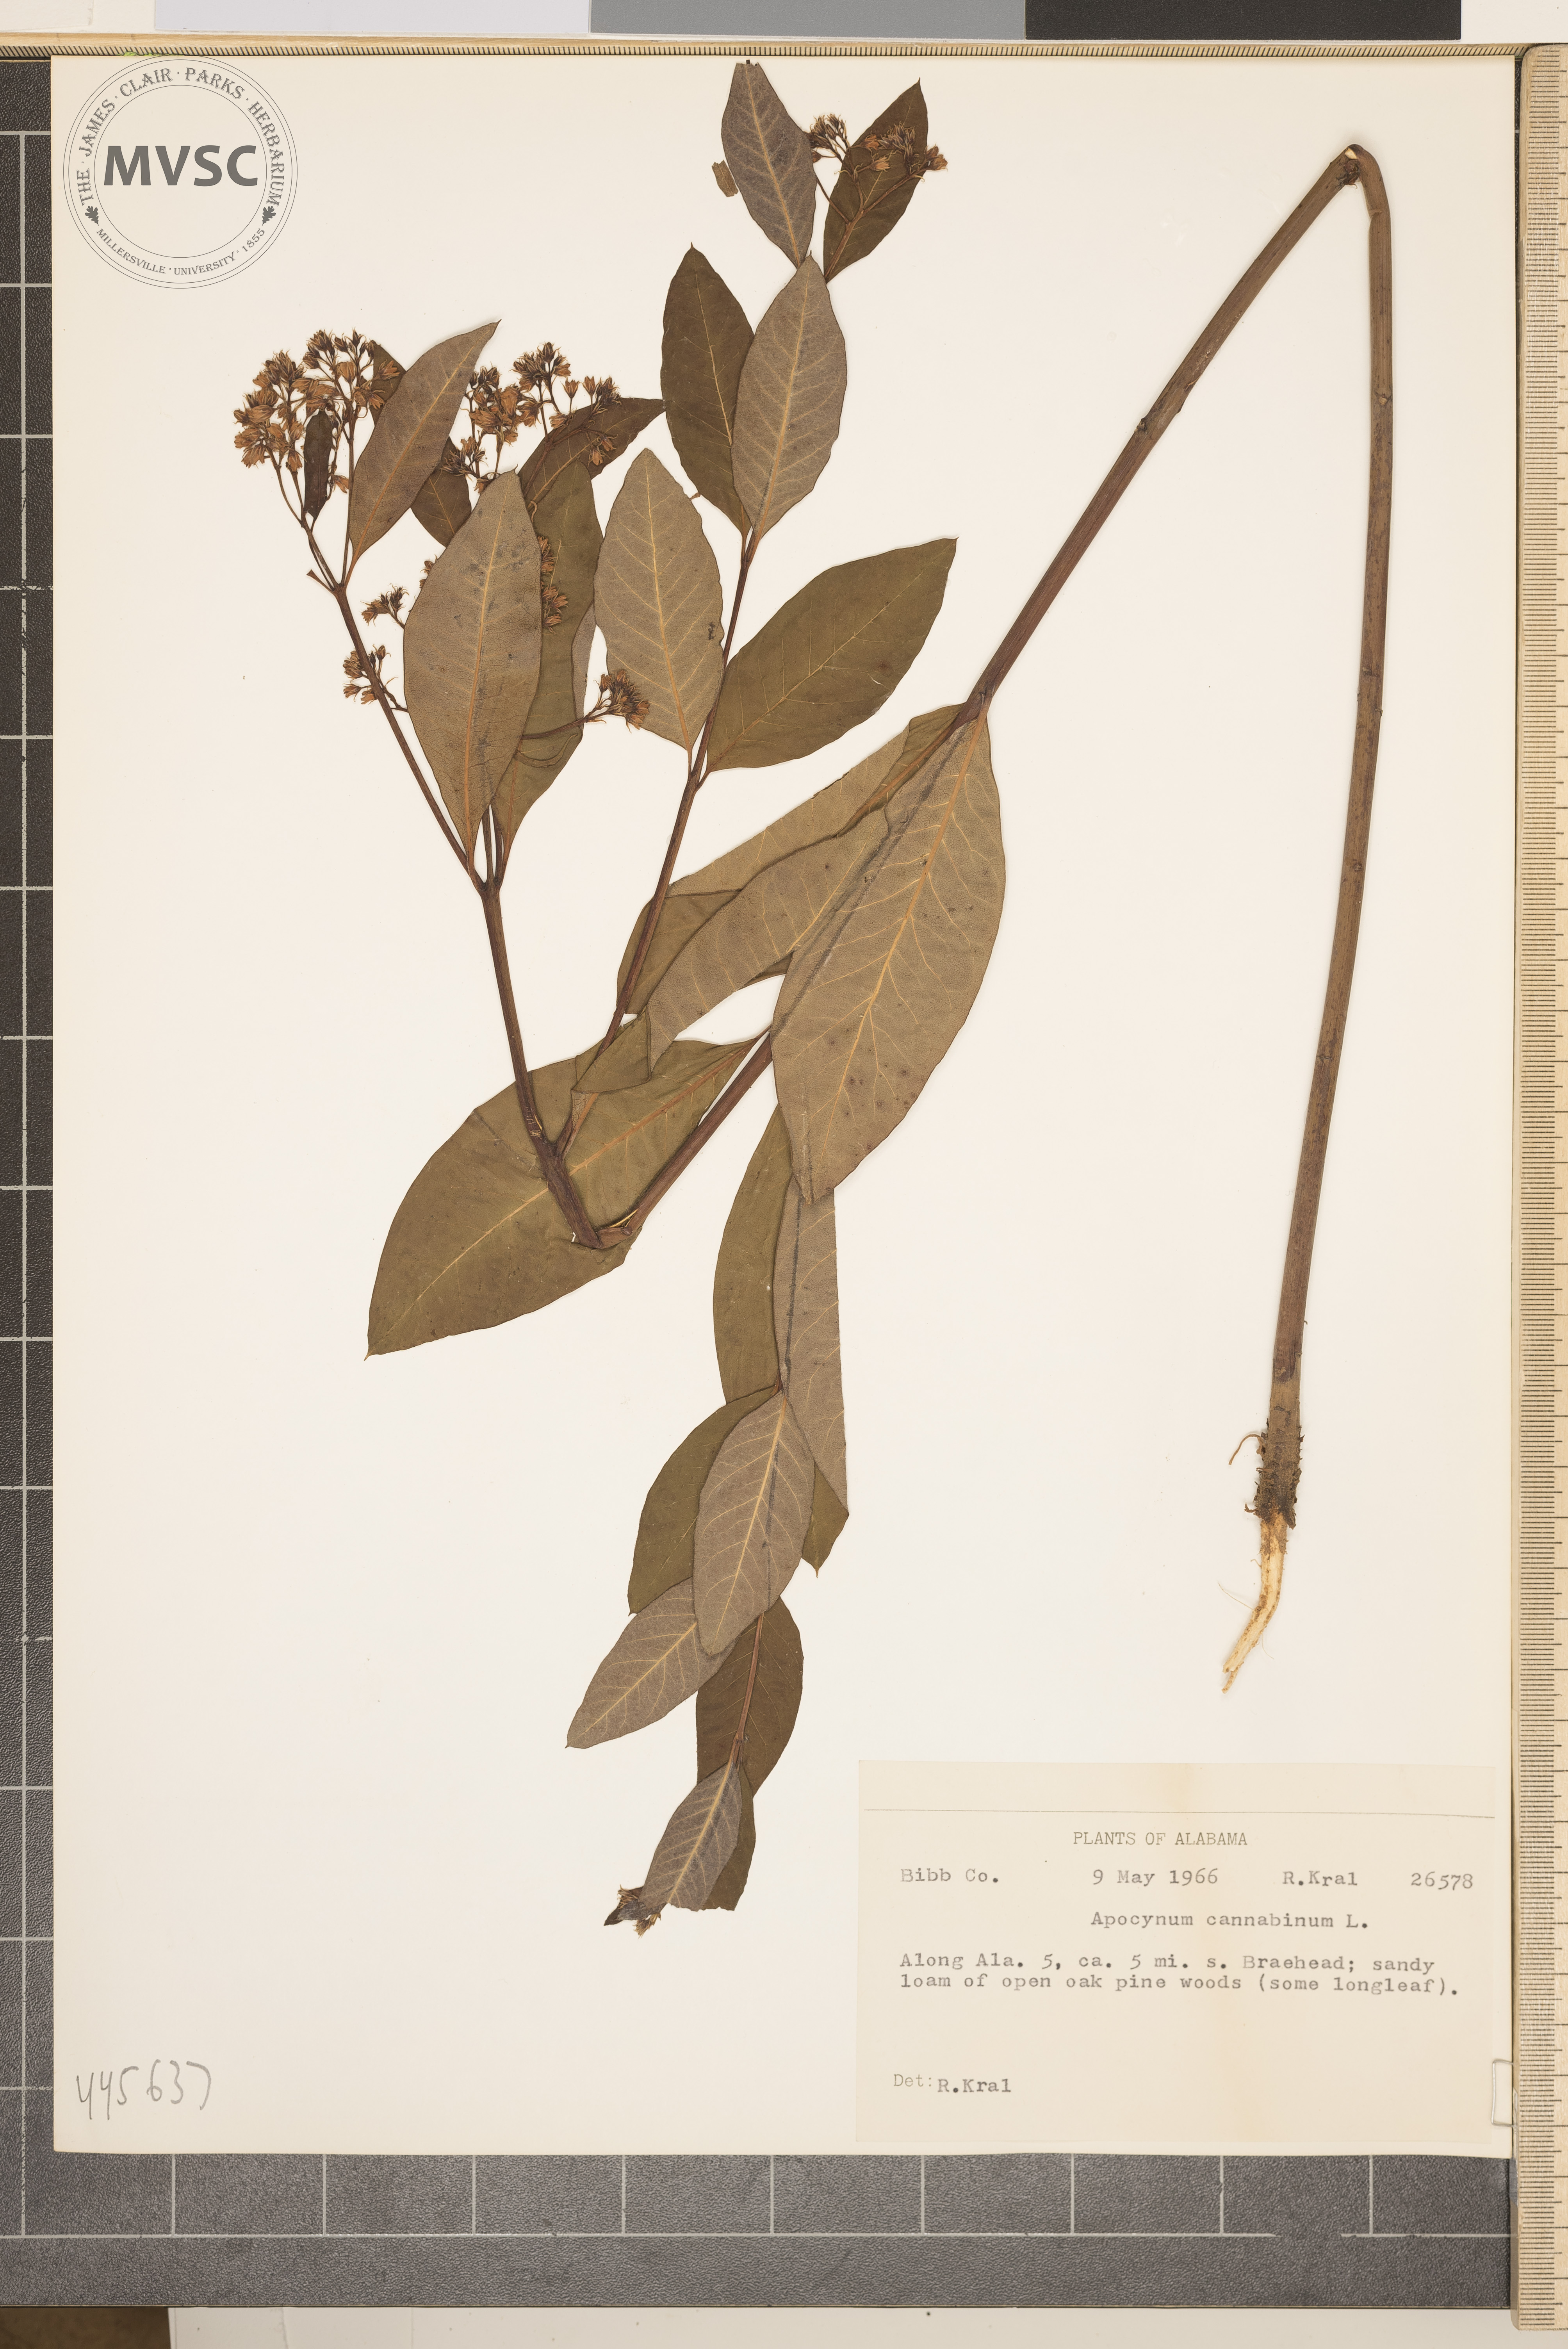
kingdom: Plantae
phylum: Tracheophyta
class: Magnoliopsida
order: Gentianales
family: Apocynaceae
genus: Apocynum
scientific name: Apocynum cannabinum
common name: Indian-hemp
